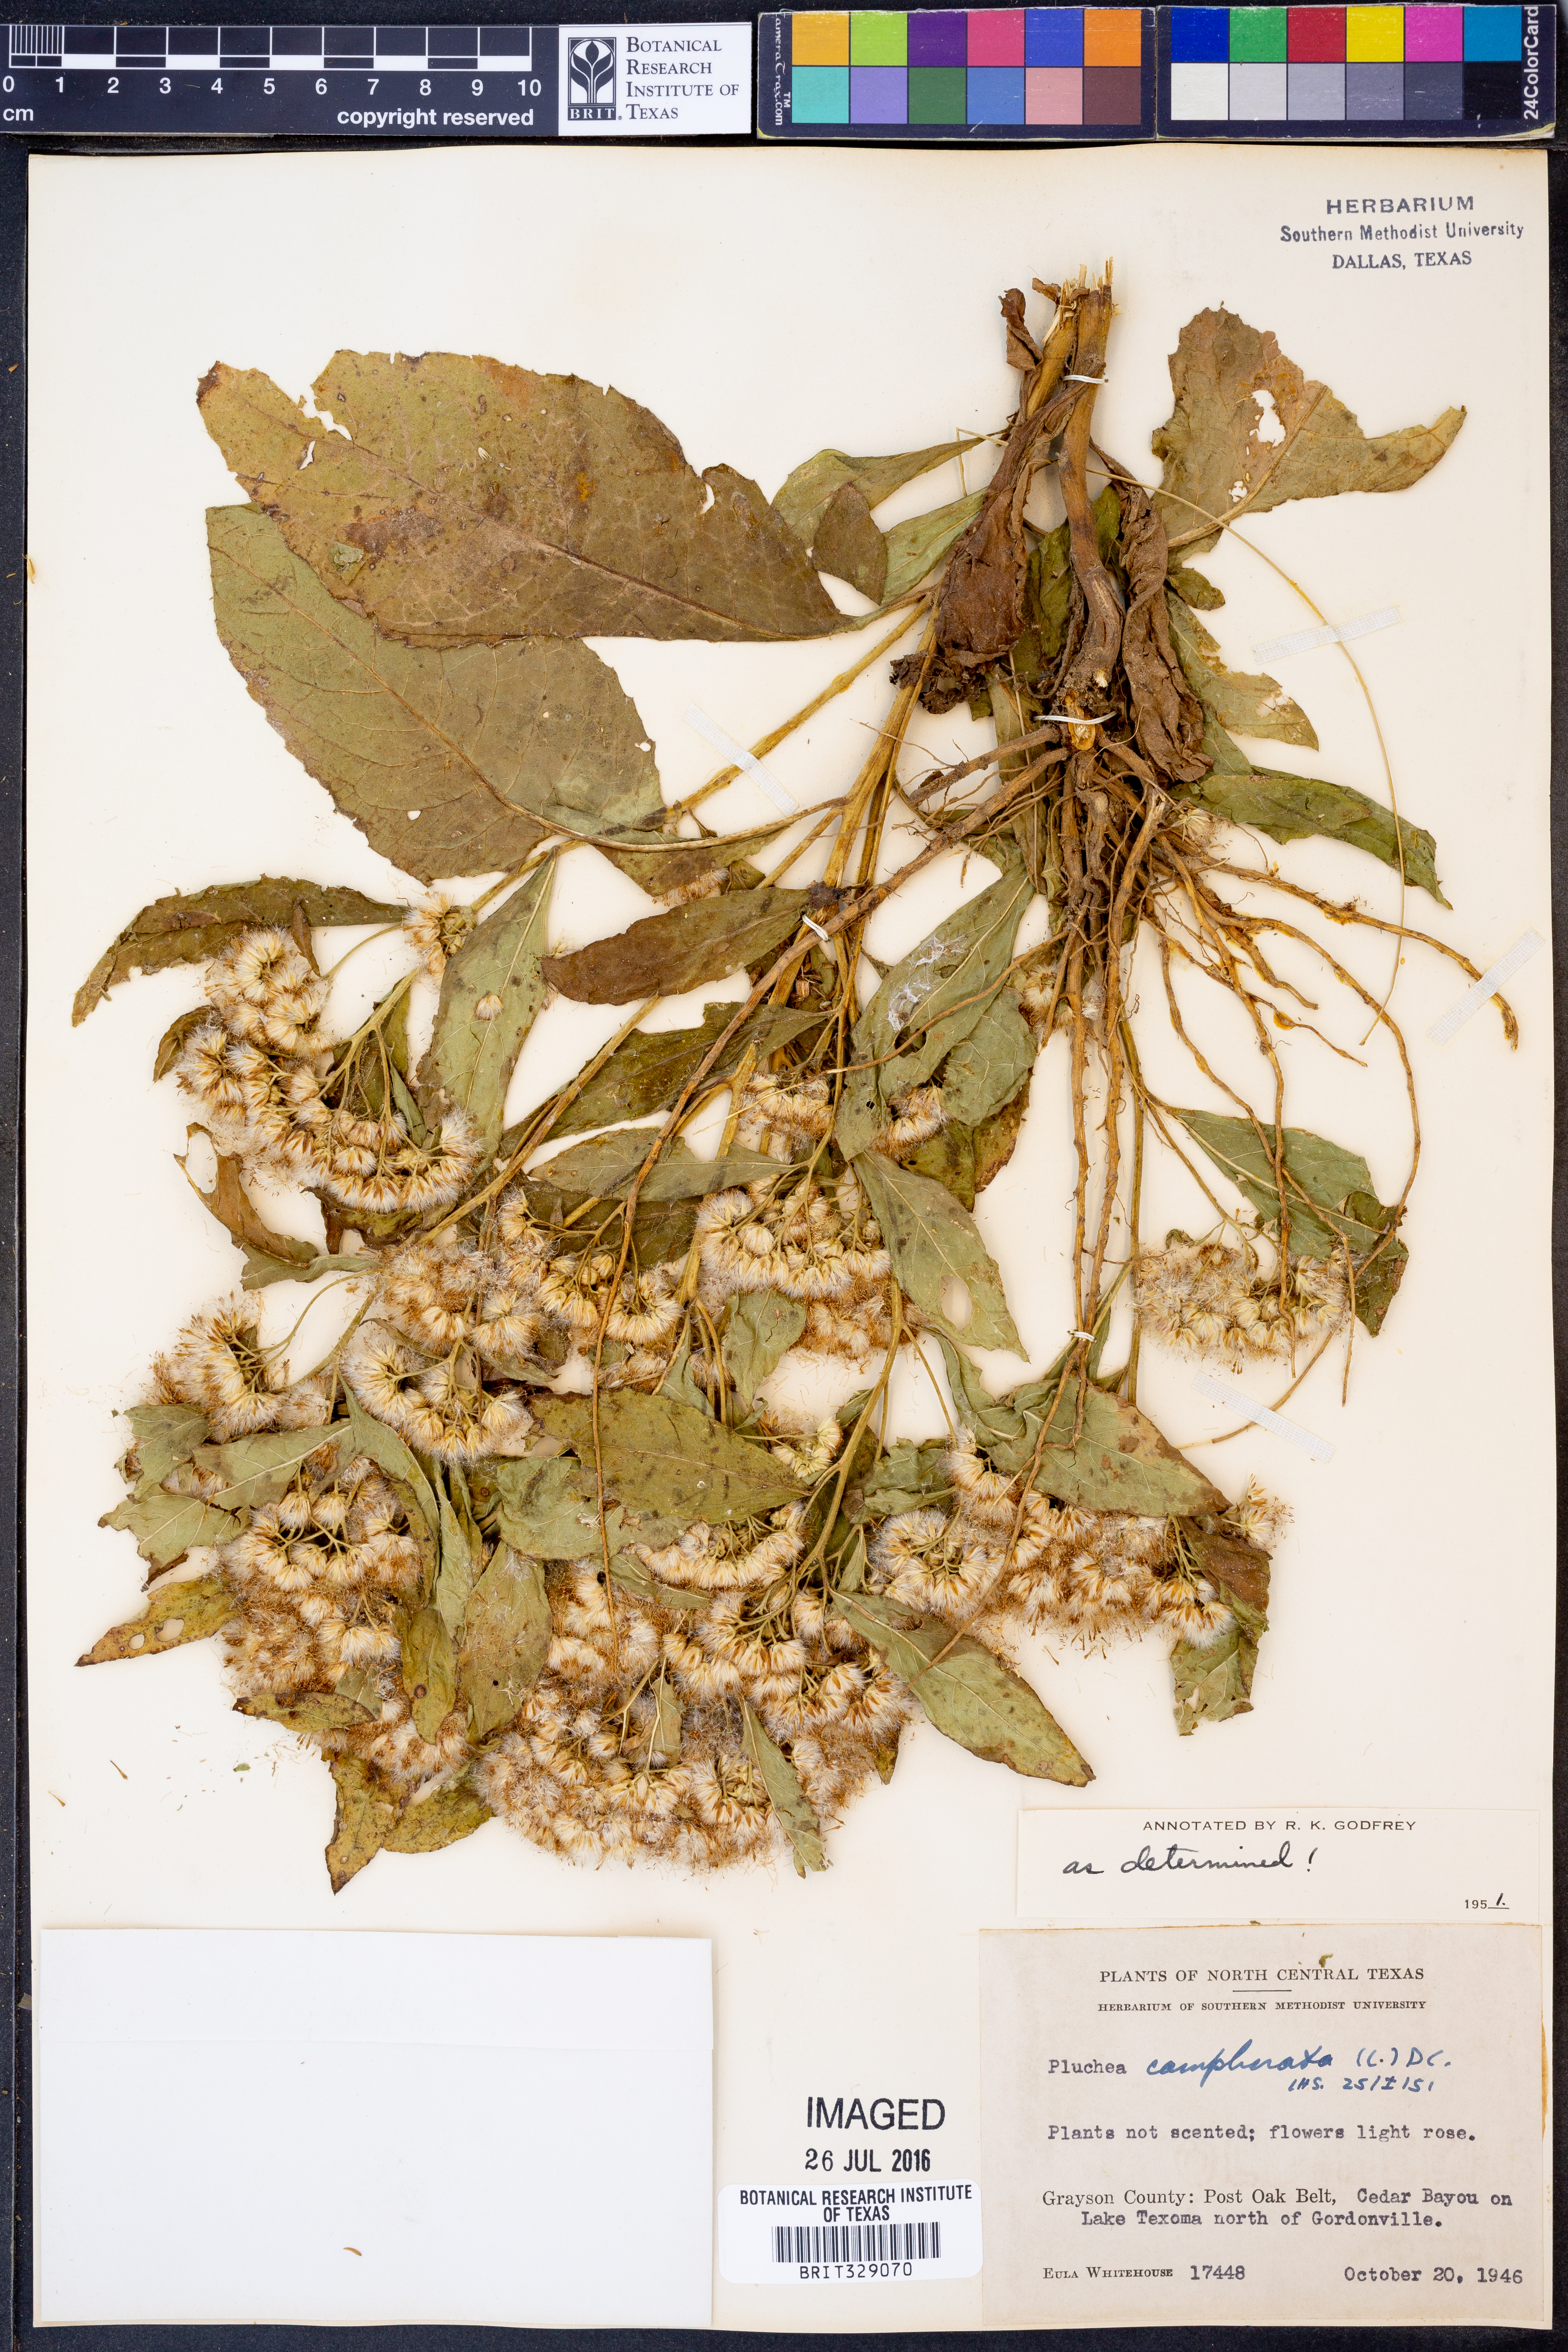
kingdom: Plantae
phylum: Tracheophyta
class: Magnoliopsida
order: Asterales
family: Asteraceae
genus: Pluchea
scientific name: Pluchea camphorata
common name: Camphor pluchea
